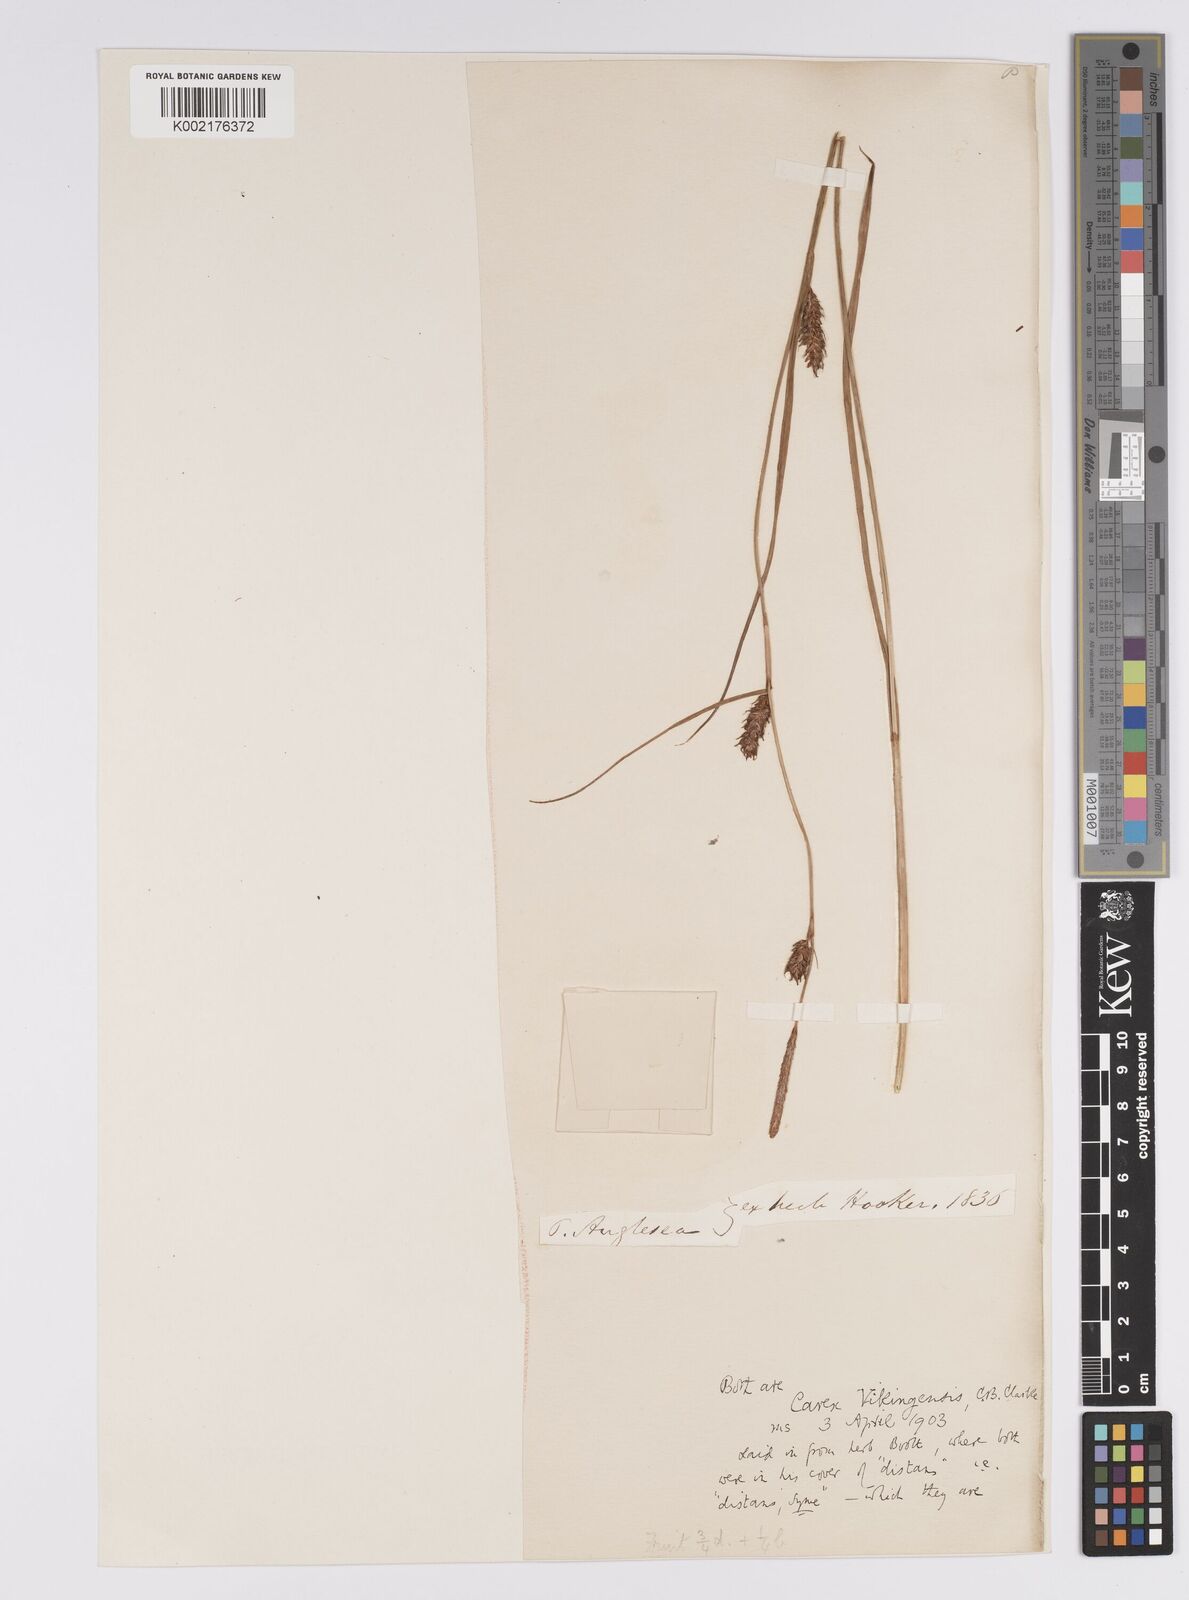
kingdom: Plantae
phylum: Tracheophyta
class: Liliopsida
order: Poales
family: Cyperaceae
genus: Carex
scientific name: Carex distans
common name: Distant sedge
